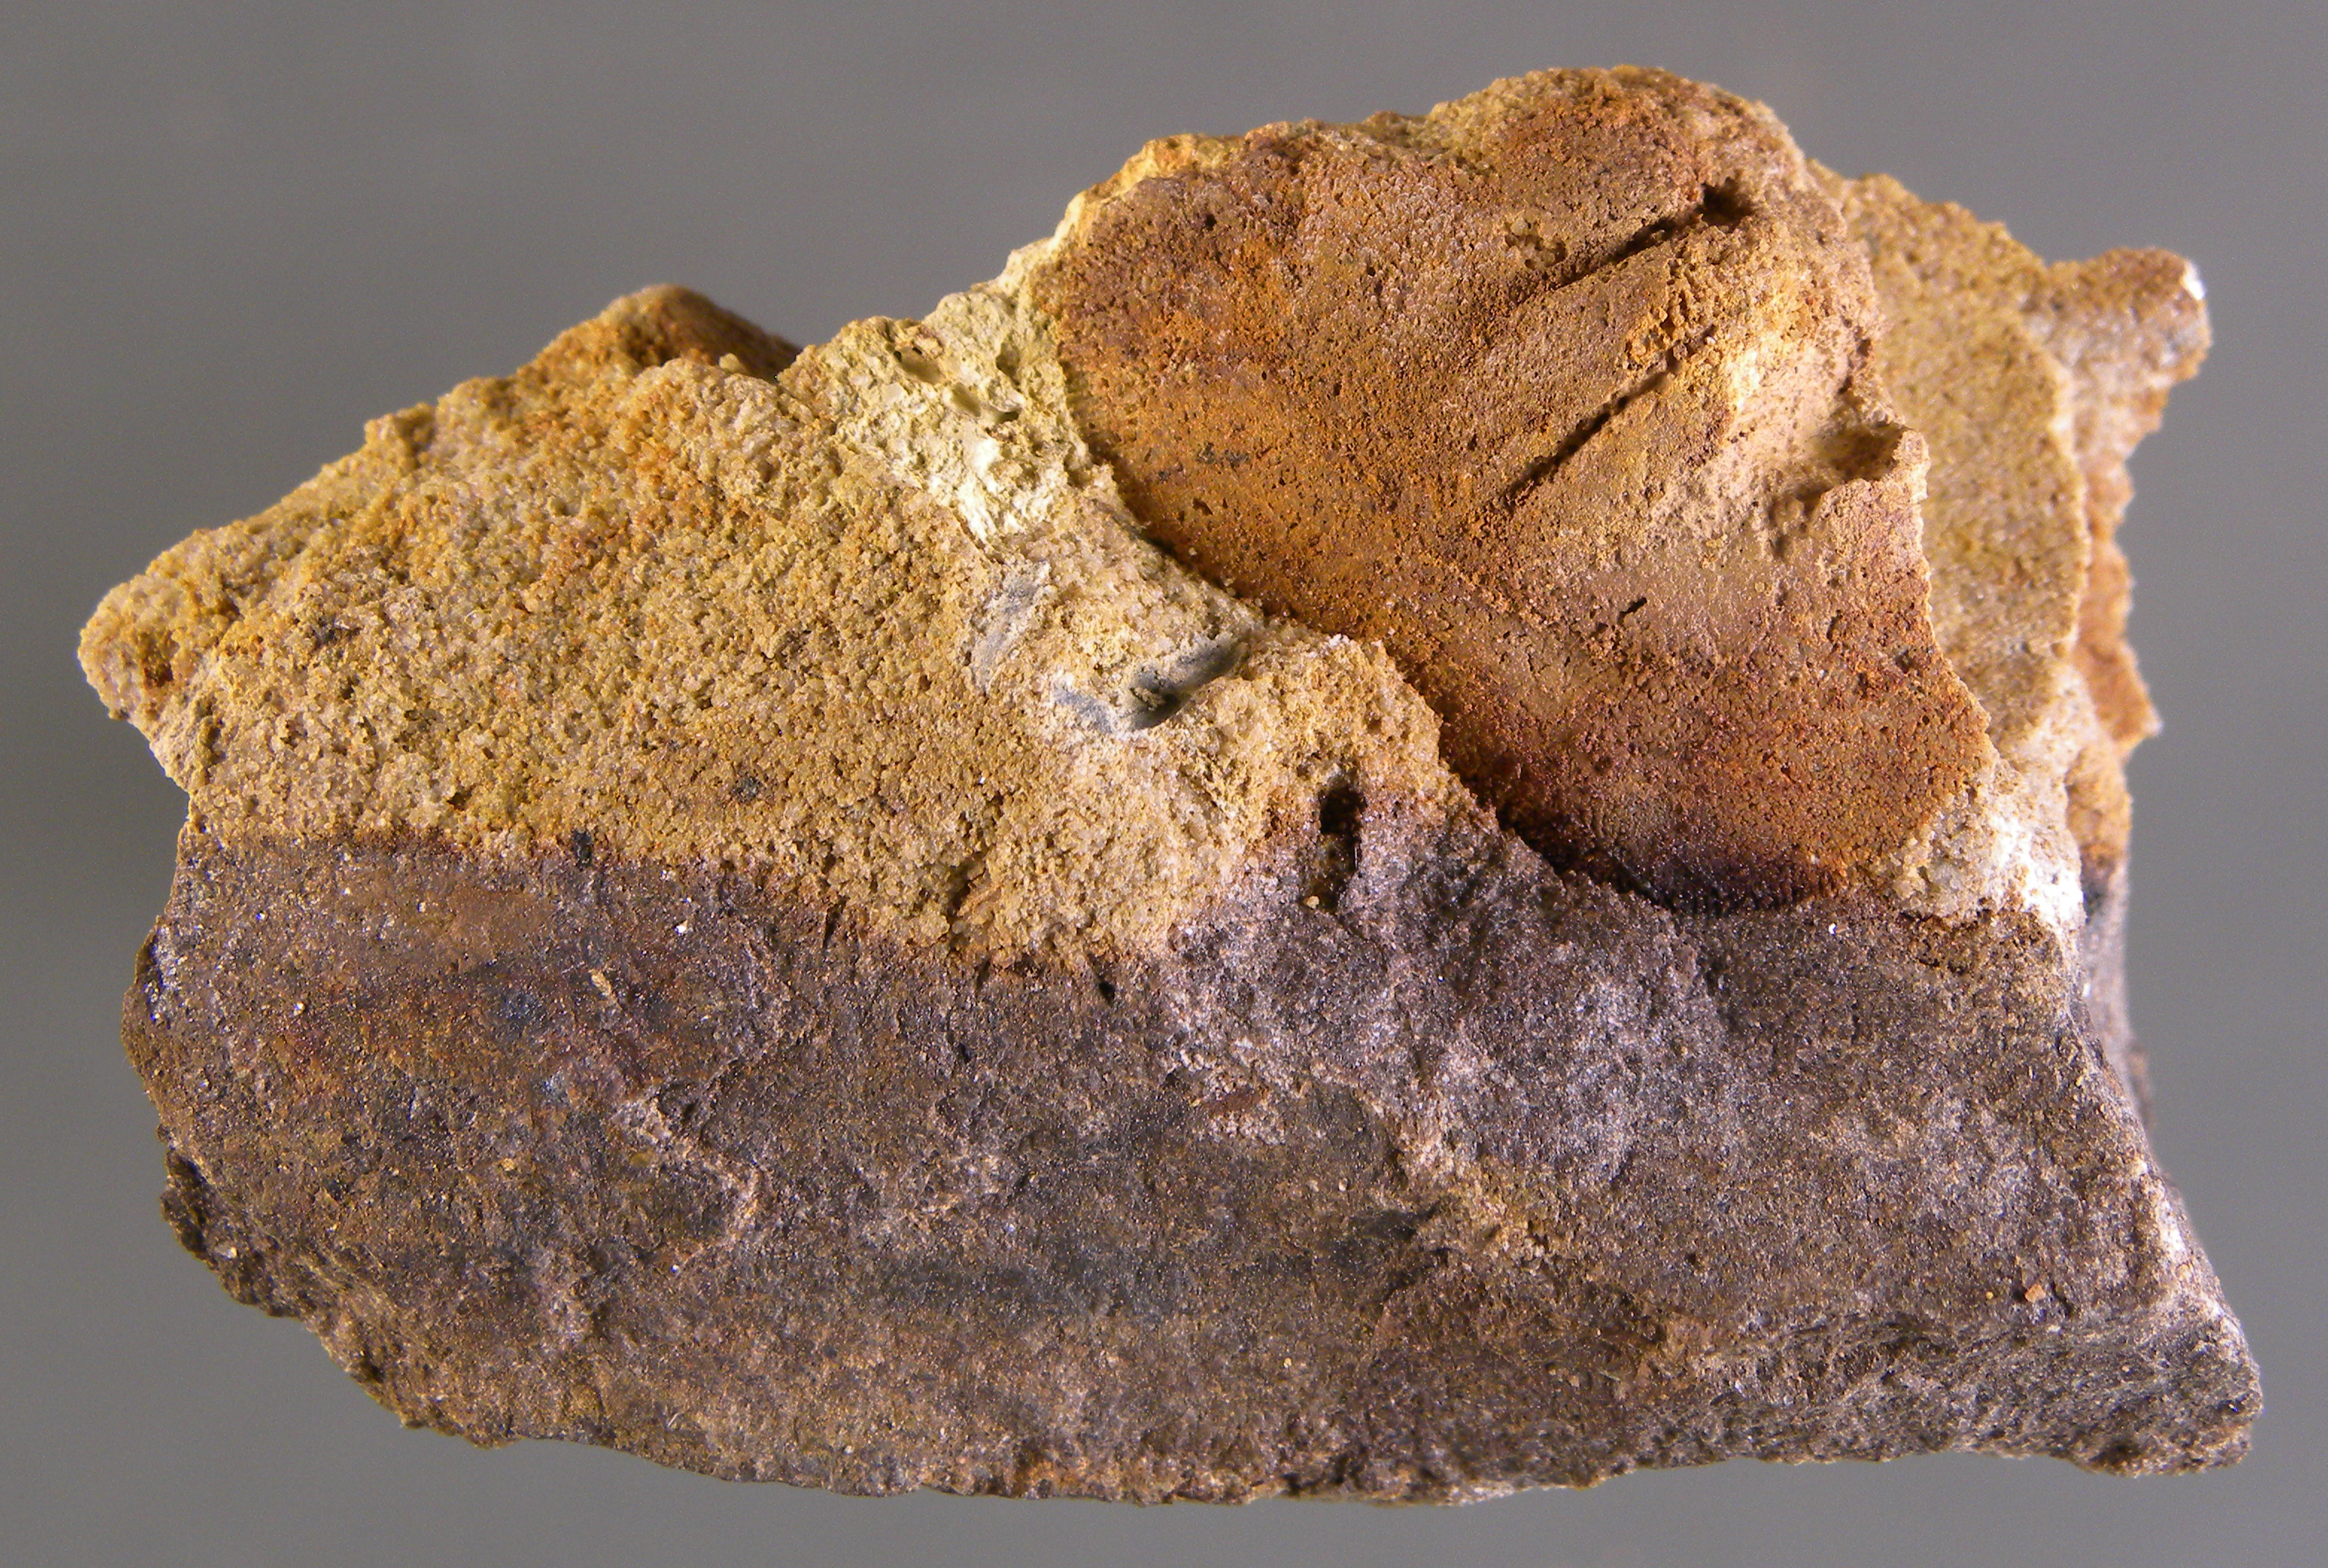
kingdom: Animalia
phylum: Brachiopoda
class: Rhynchonellata
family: Rhipidomellidae
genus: Platyorthis
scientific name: Platyorthis
